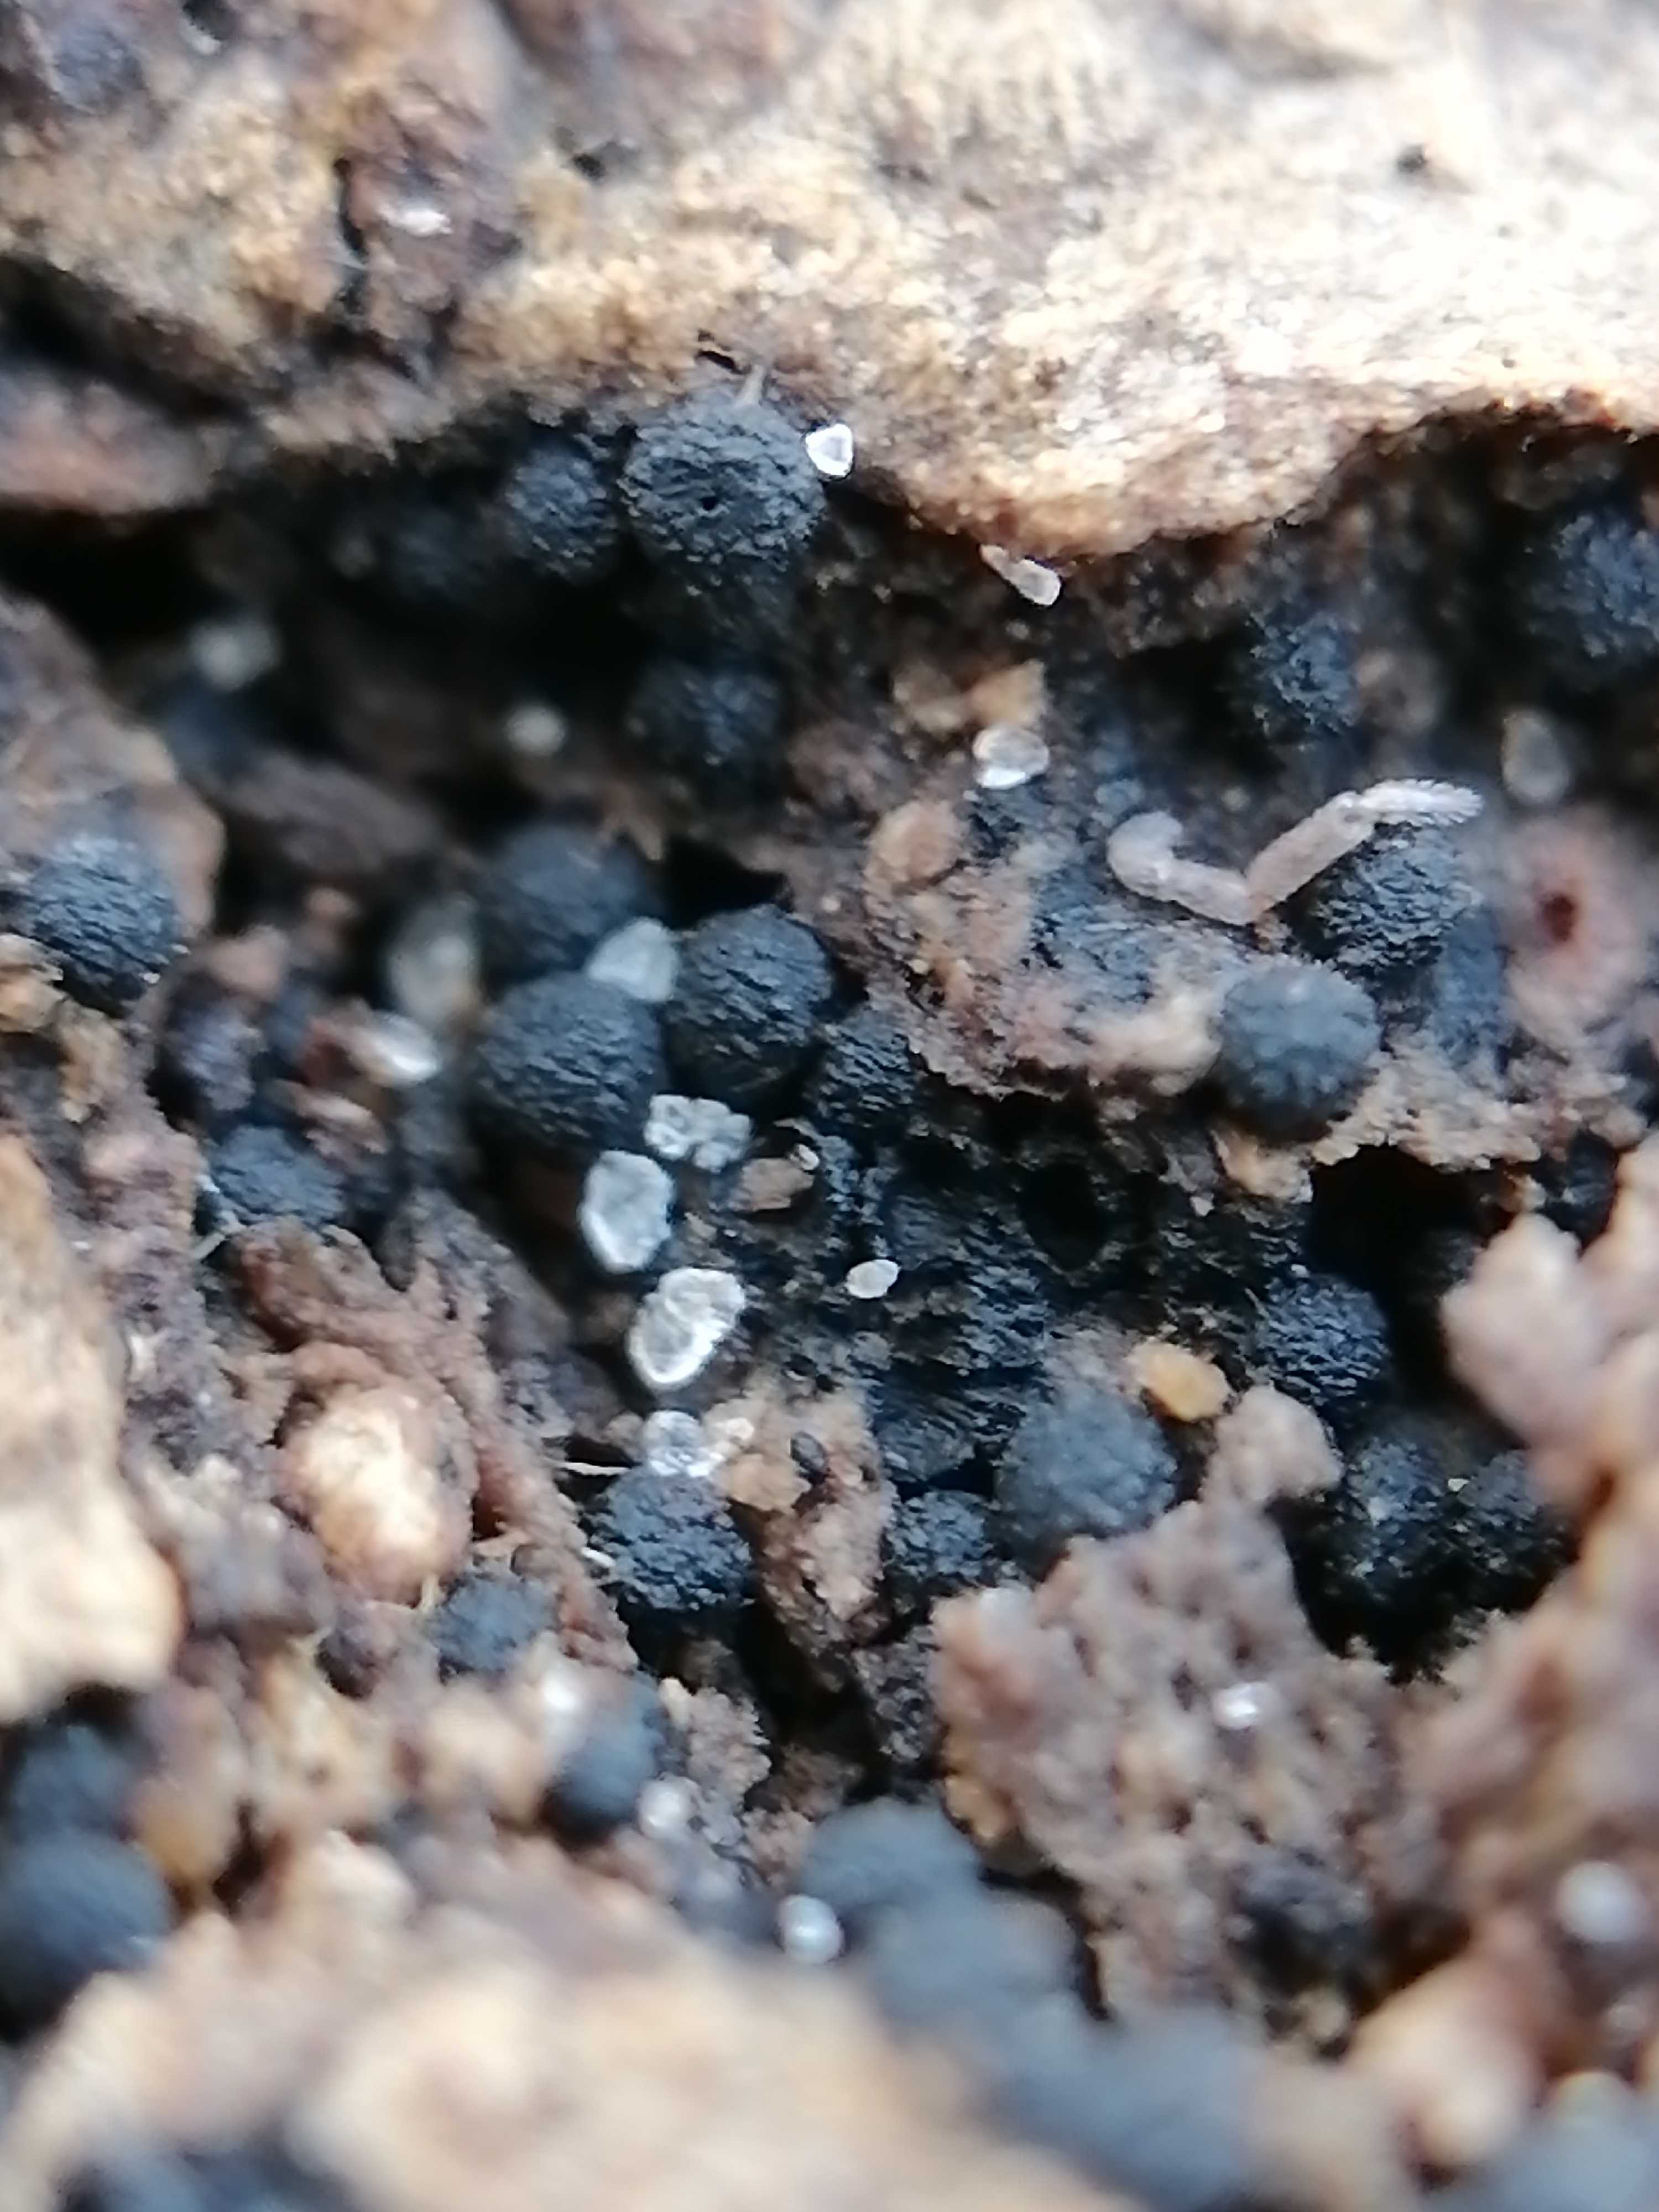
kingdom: Fungi
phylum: Ascomycota
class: Sordariomycetes
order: Sordariales
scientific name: Sordariales
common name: kernesvampordenen
